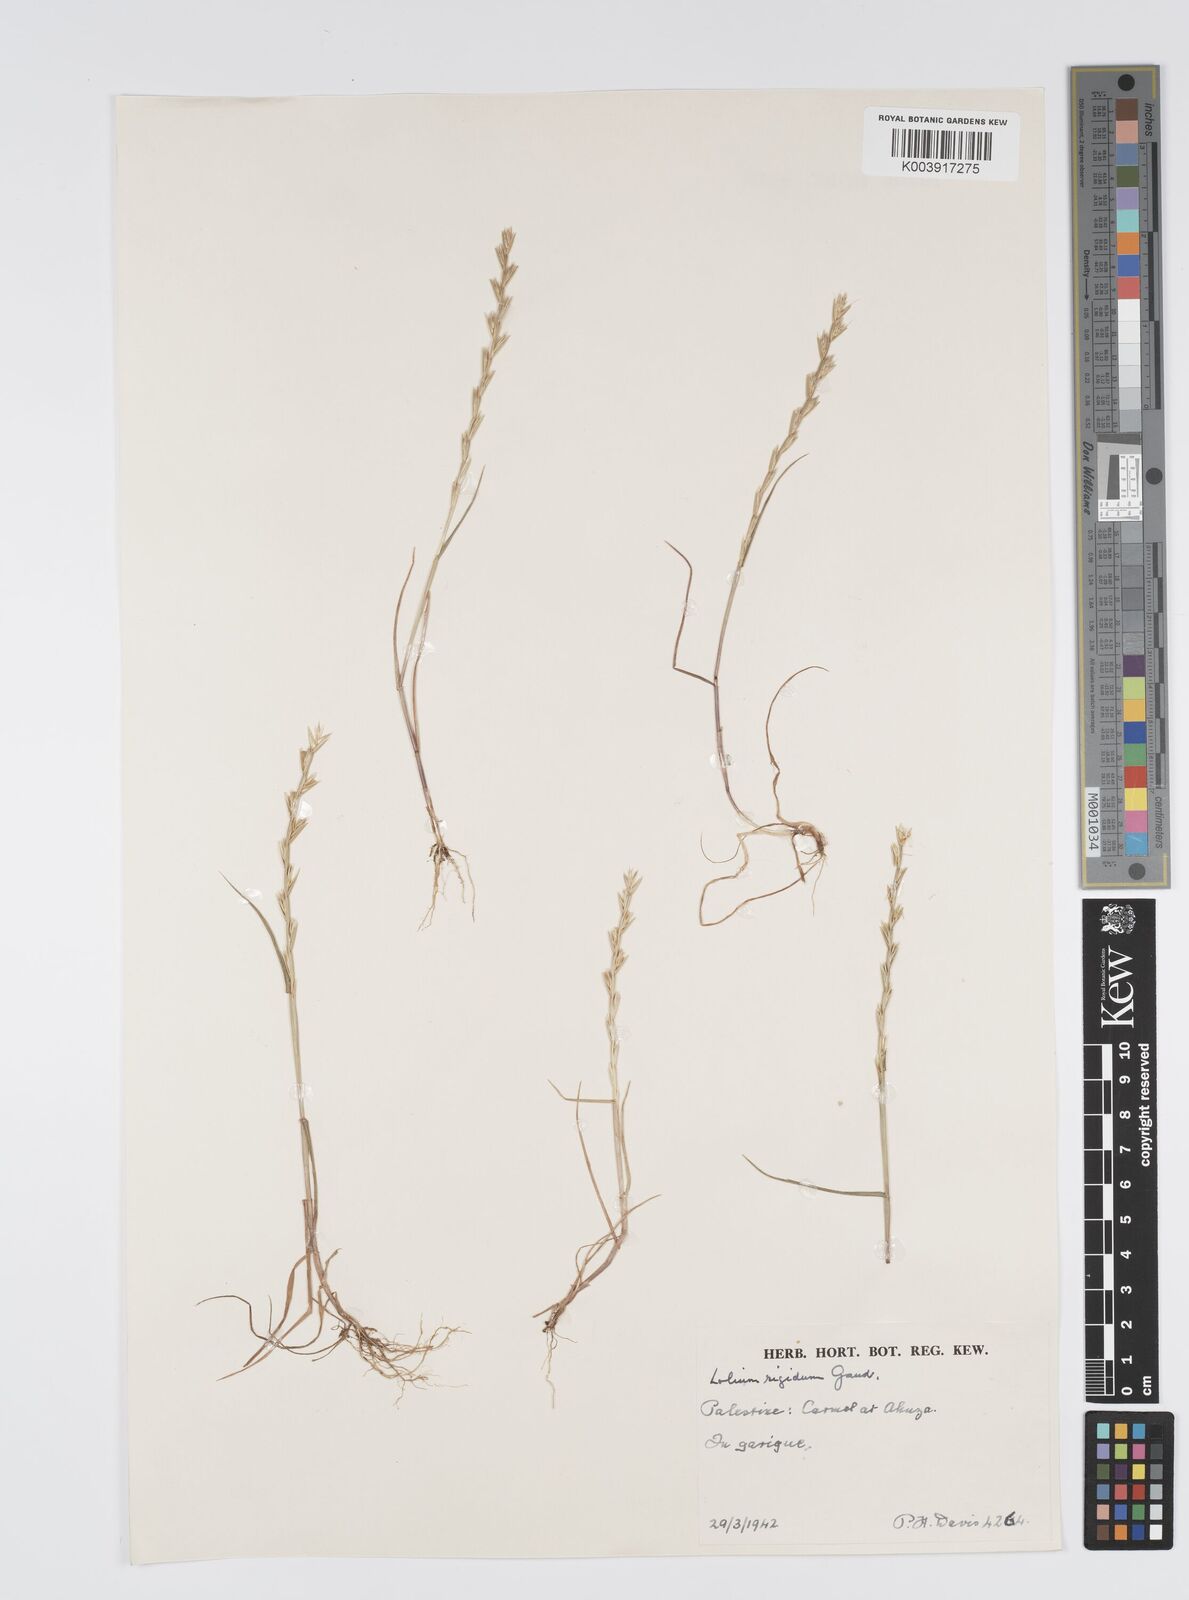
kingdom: Plantae
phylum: Tracheophyta
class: Liliopsida
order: Poales
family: Poaceae
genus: Lolium
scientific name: Lolium rigidum
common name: Wimmera ryegrass
